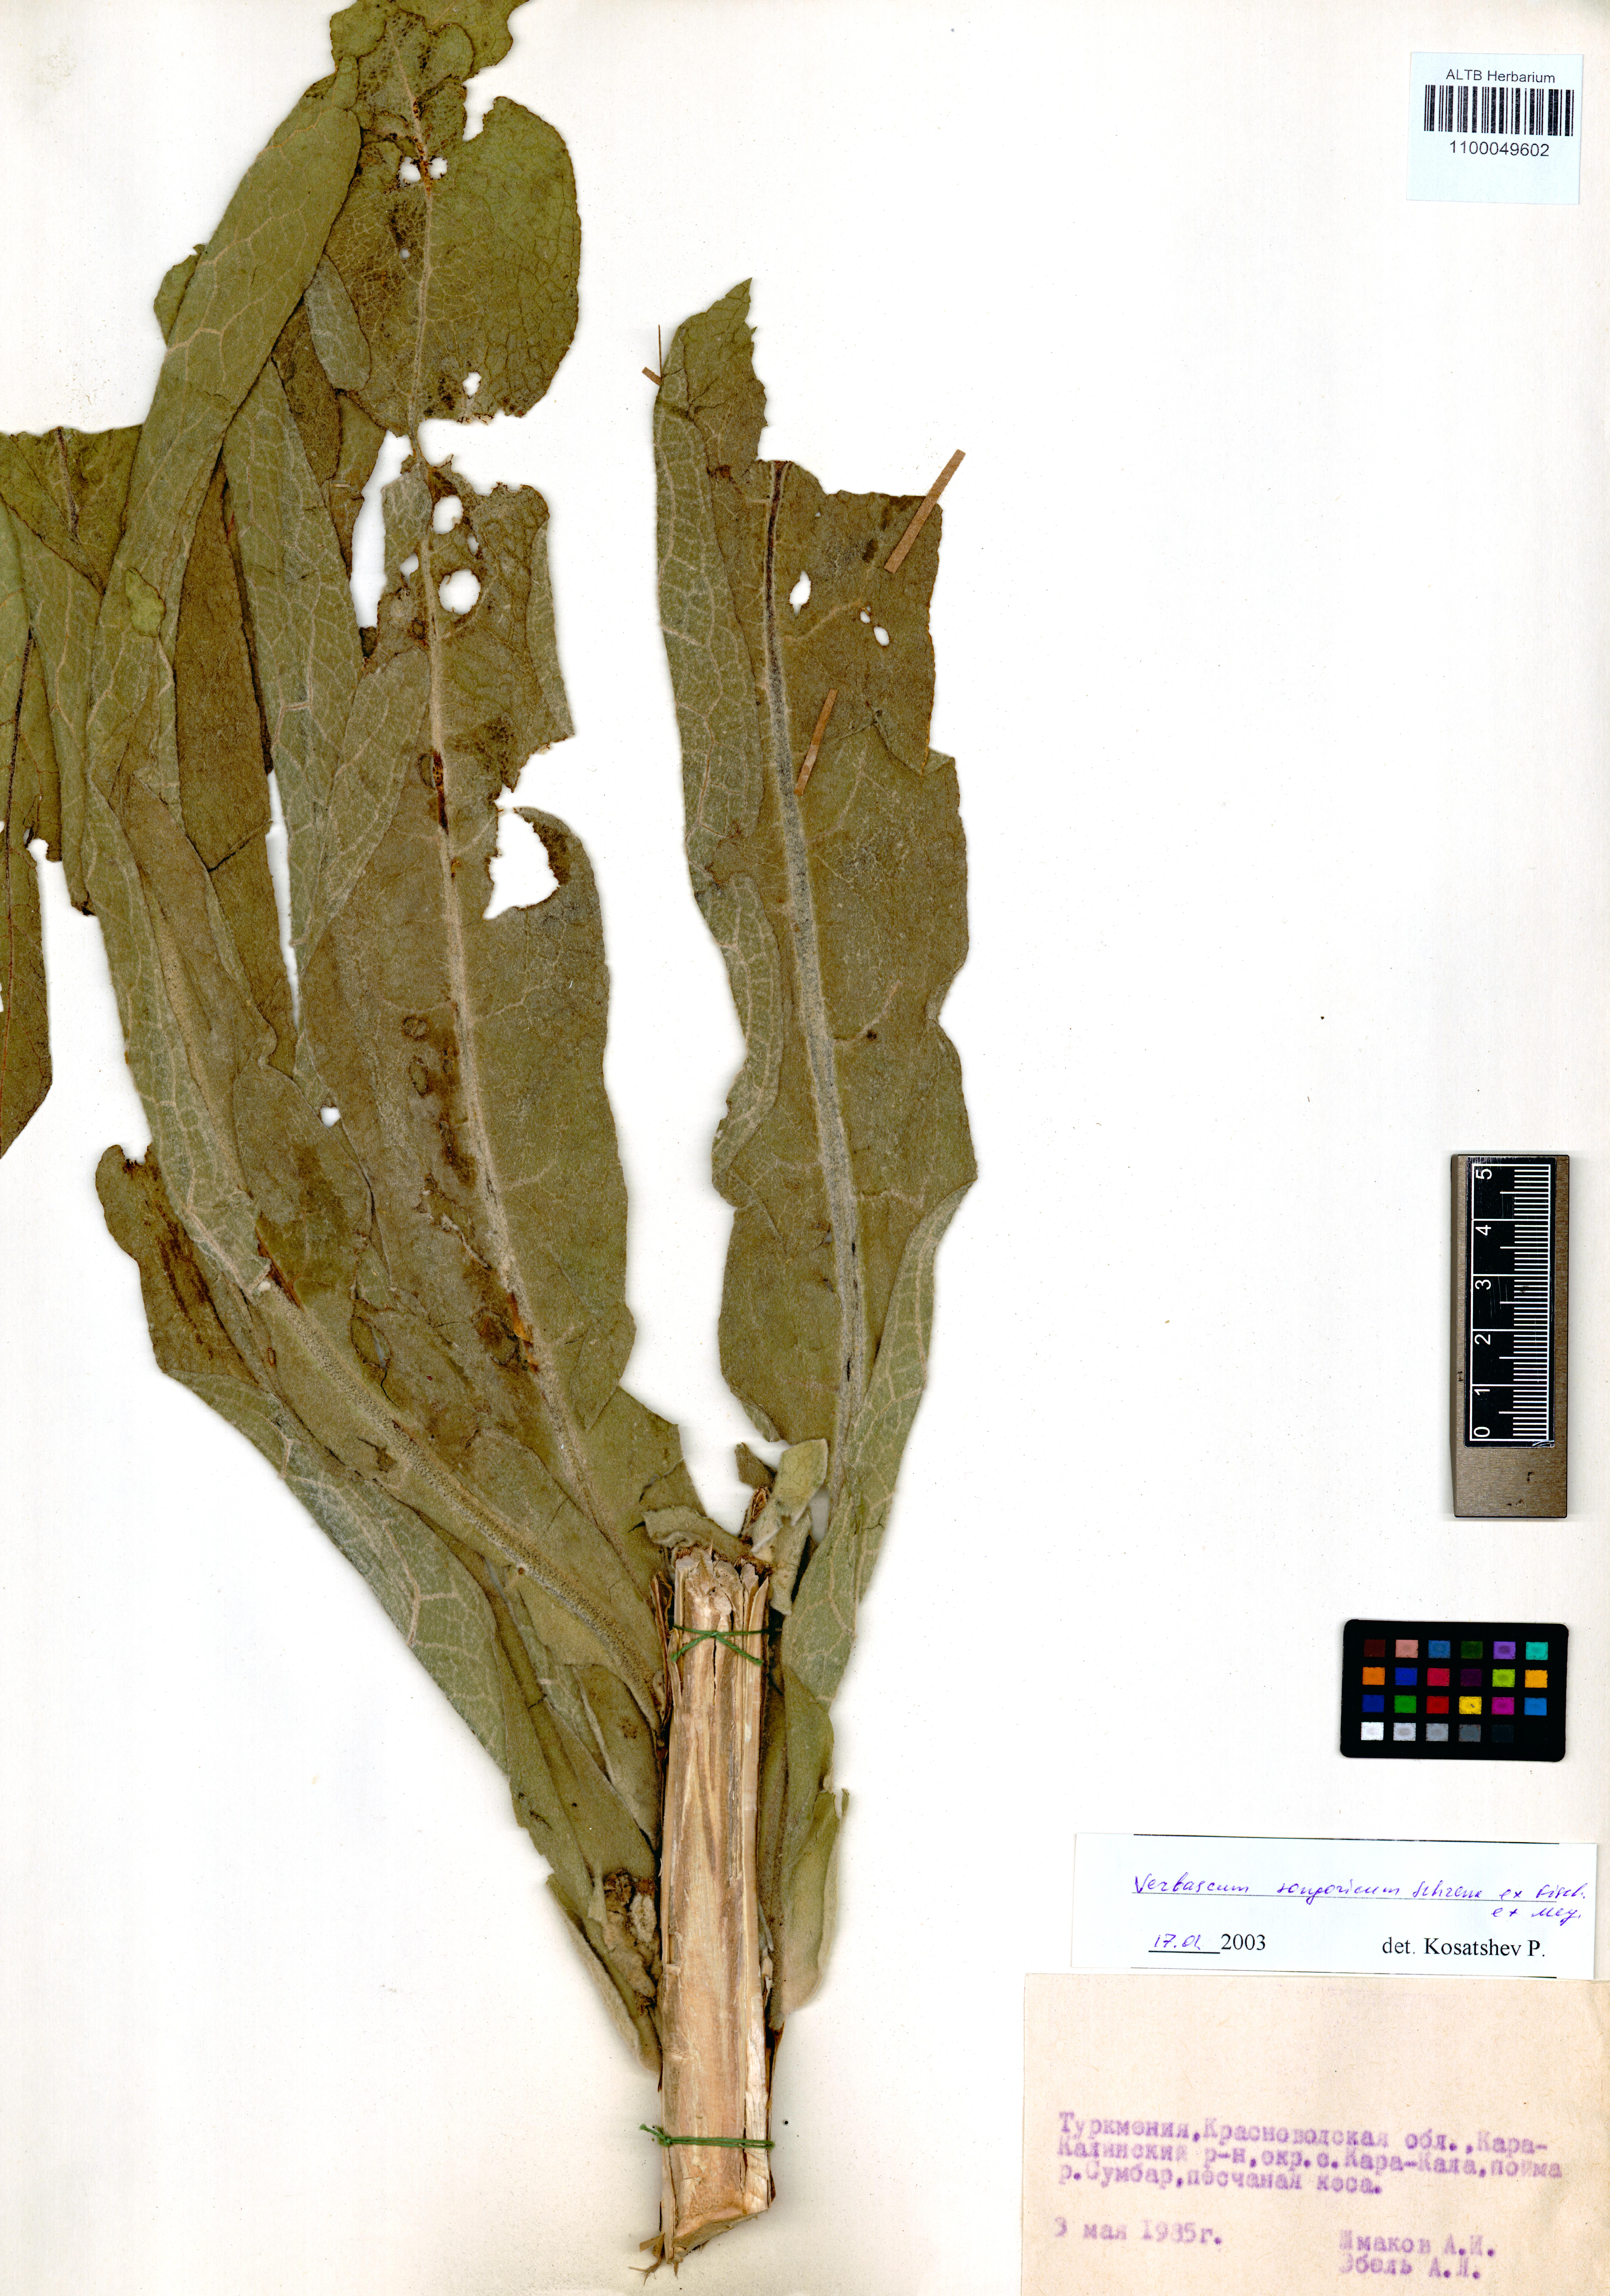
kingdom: Plantae
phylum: Tracheophyta
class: Magnoliopsida
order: Lamiales
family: Scrophulariaceae
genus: Verbascum
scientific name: Verbascum songaricum
